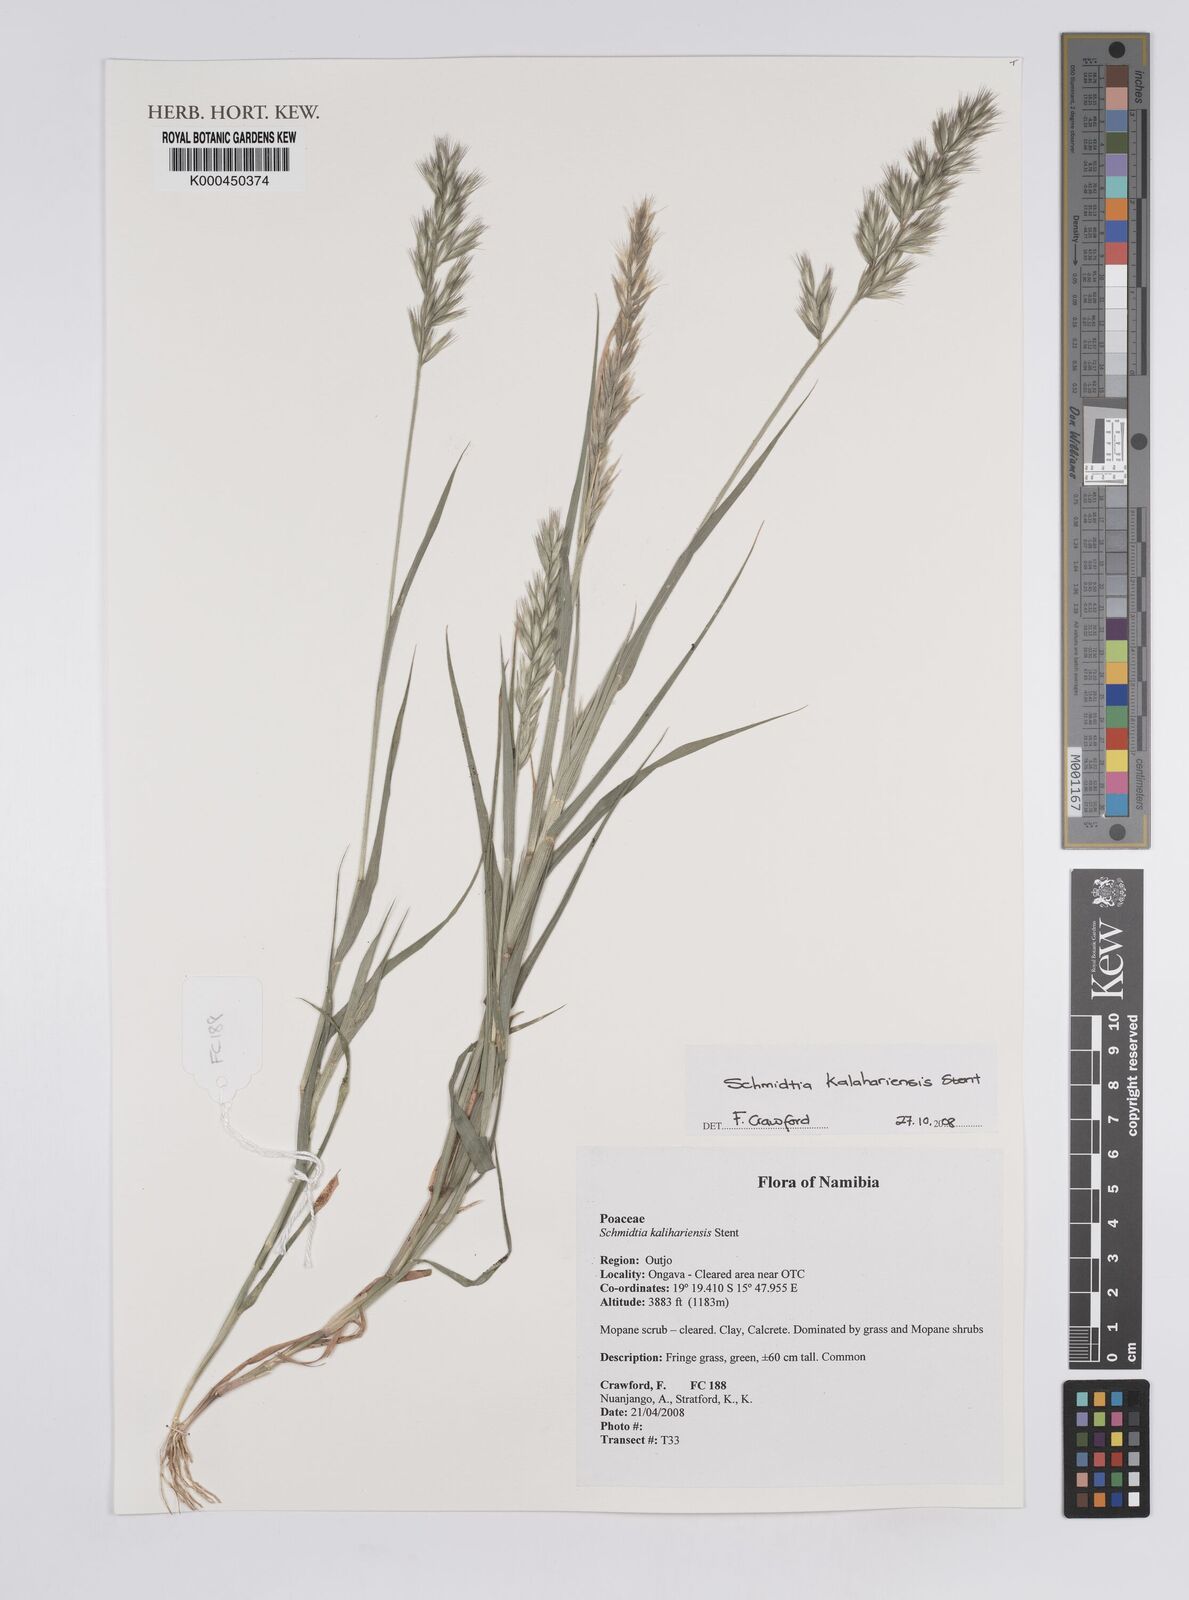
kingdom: Plantae
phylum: Tracheophyta
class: Liliopsida
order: Poales
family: Poaceae
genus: Schmidtia
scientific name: Schmidtia kalahariensis
